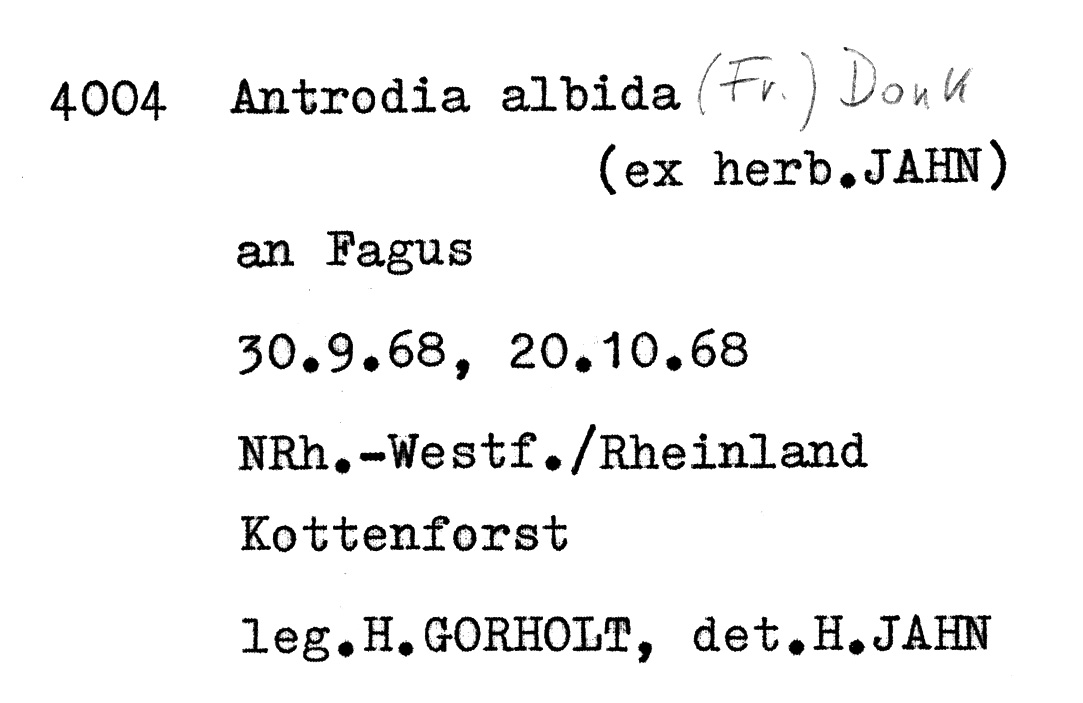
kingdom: Fungi
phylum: Basidiomycota
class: Agaricomycetes
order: Polyporales
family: Fomitopsidaceae
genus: Antrodia
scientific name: Antrodia albida
